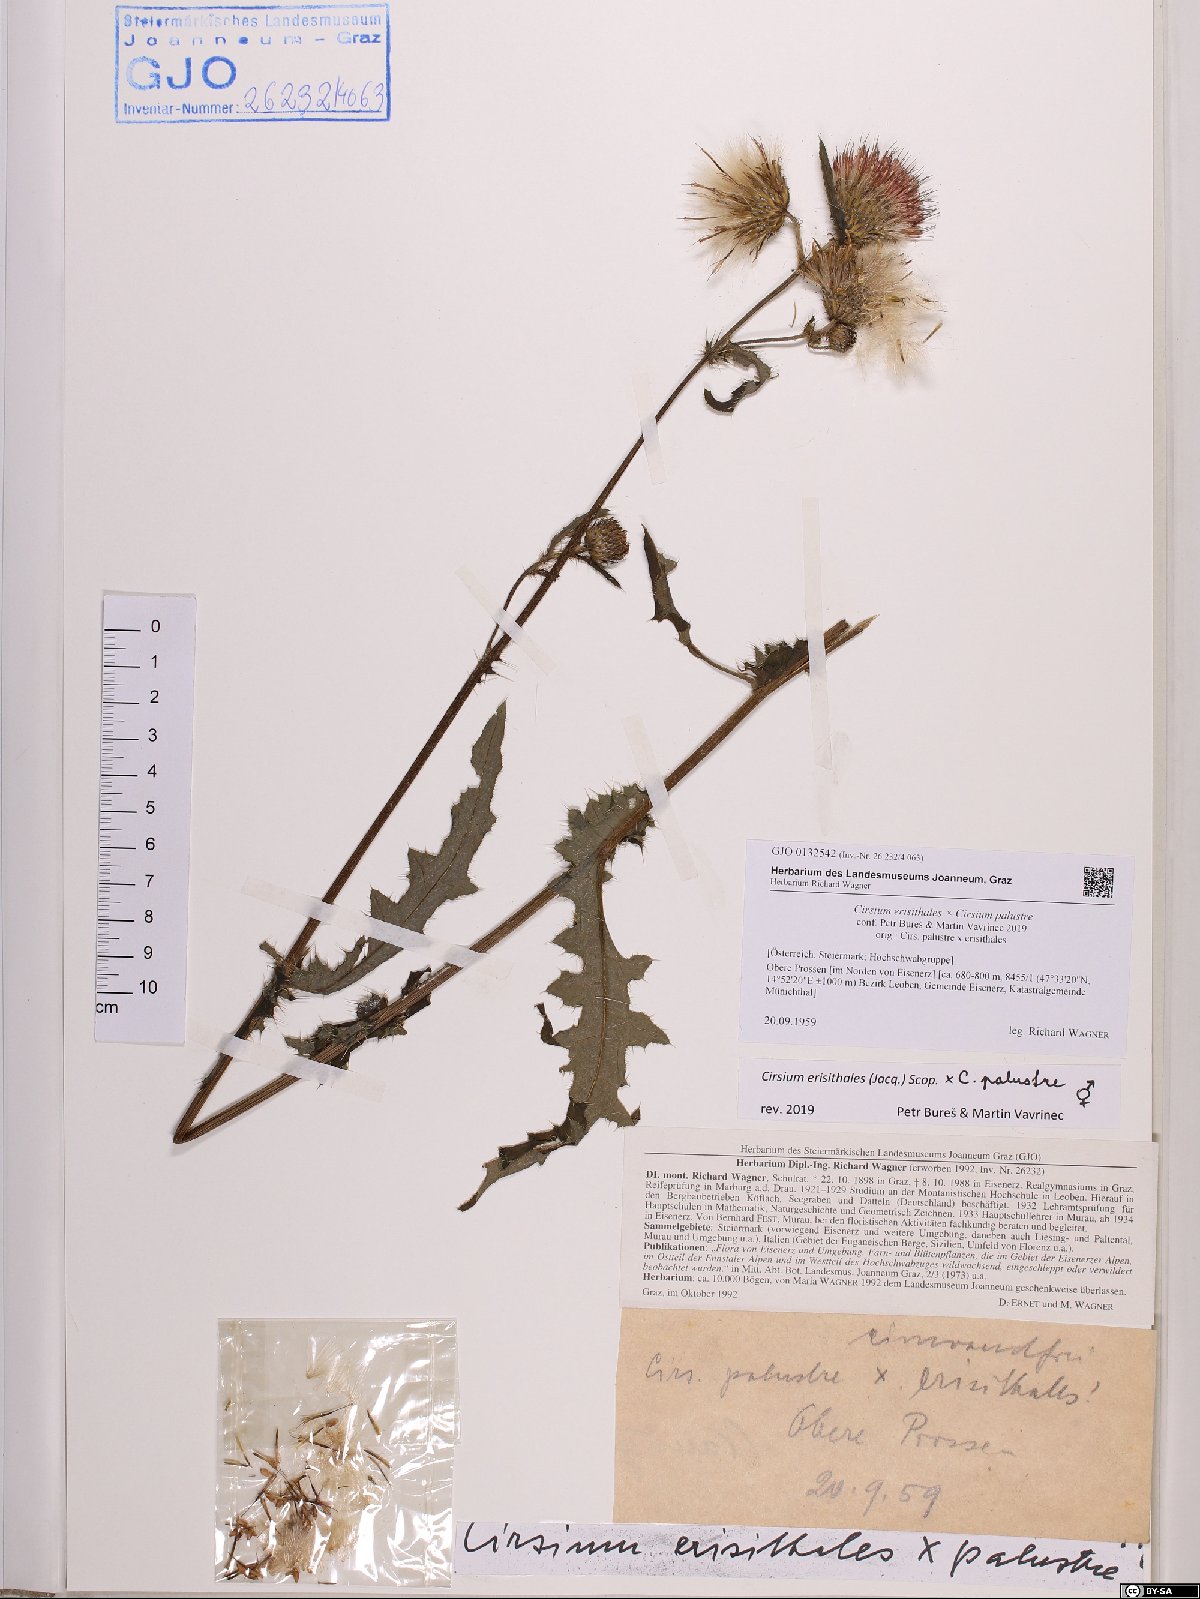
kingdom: Plantae
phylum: Tracheophyta
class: Magnoliopsida
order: Asterales
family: Asteraceae
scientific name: Asteraceae
